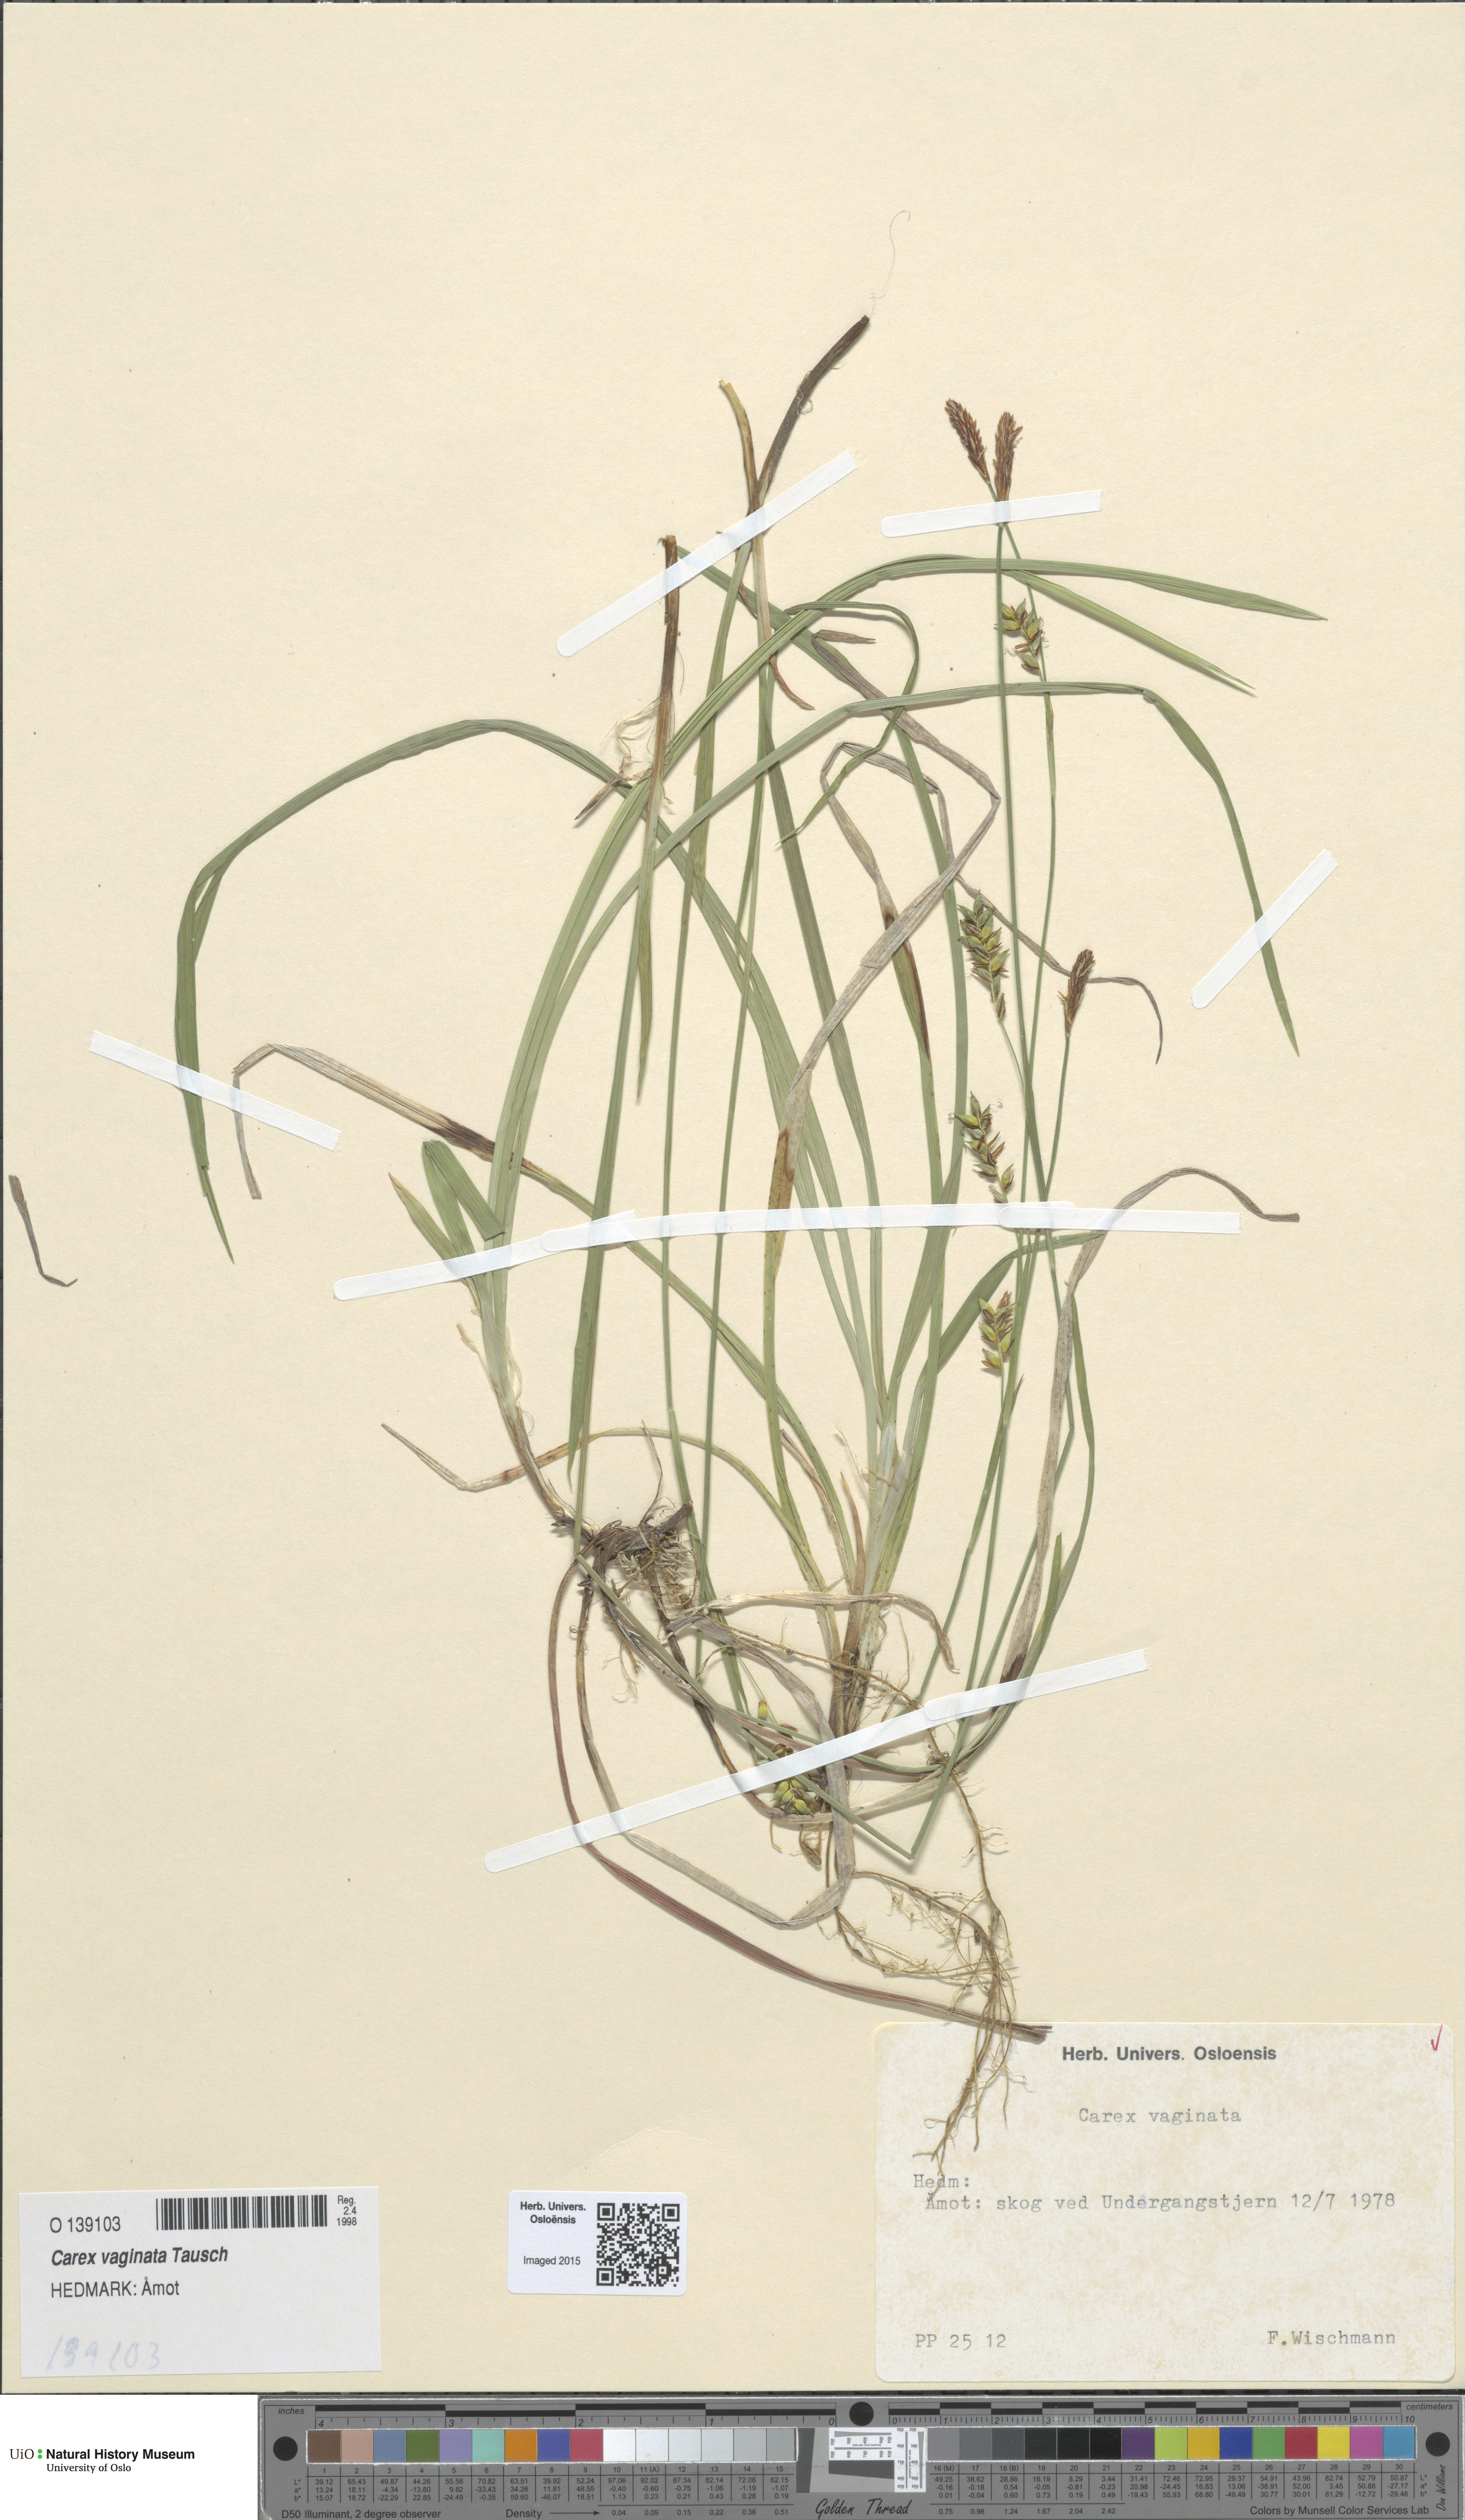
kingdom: Plantae
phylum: Tracheophyta
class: Liliopsida
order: Poales
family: Cyperaceae
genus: Carex
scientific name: Carex vaginata
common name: Sheathed sedge
